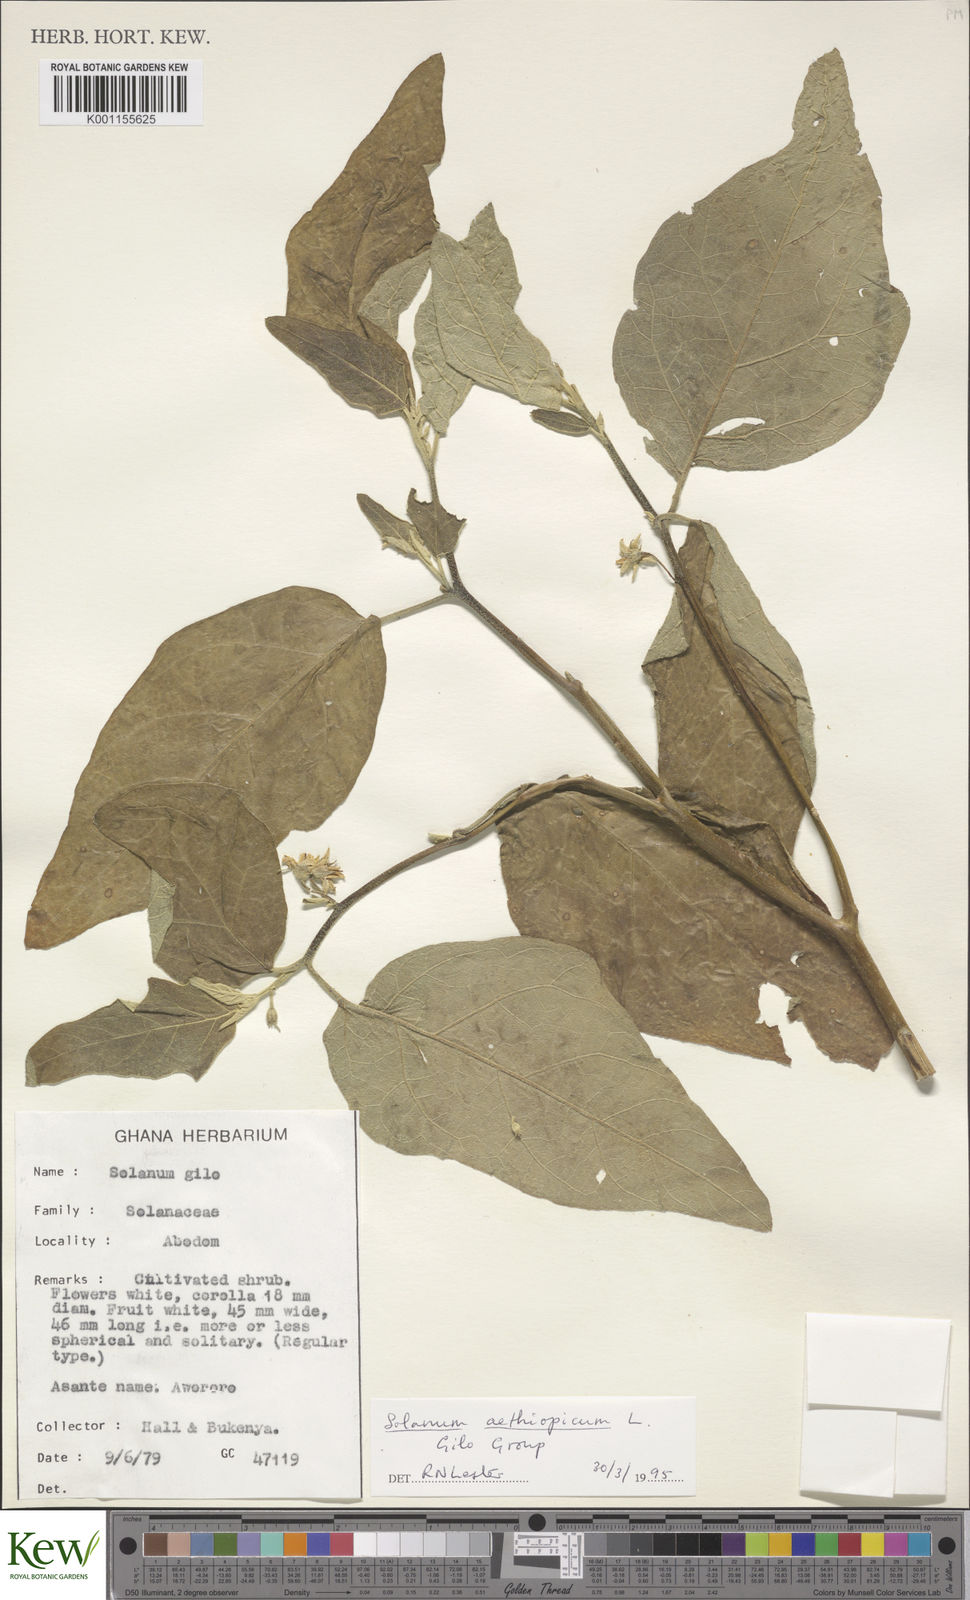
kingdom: Plantae
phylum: Tracheophyta
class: Magnoliopsida
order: Solanales
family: Solanaceae
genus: Solanum
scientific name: Solanum aethiopicum
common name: Gilo
